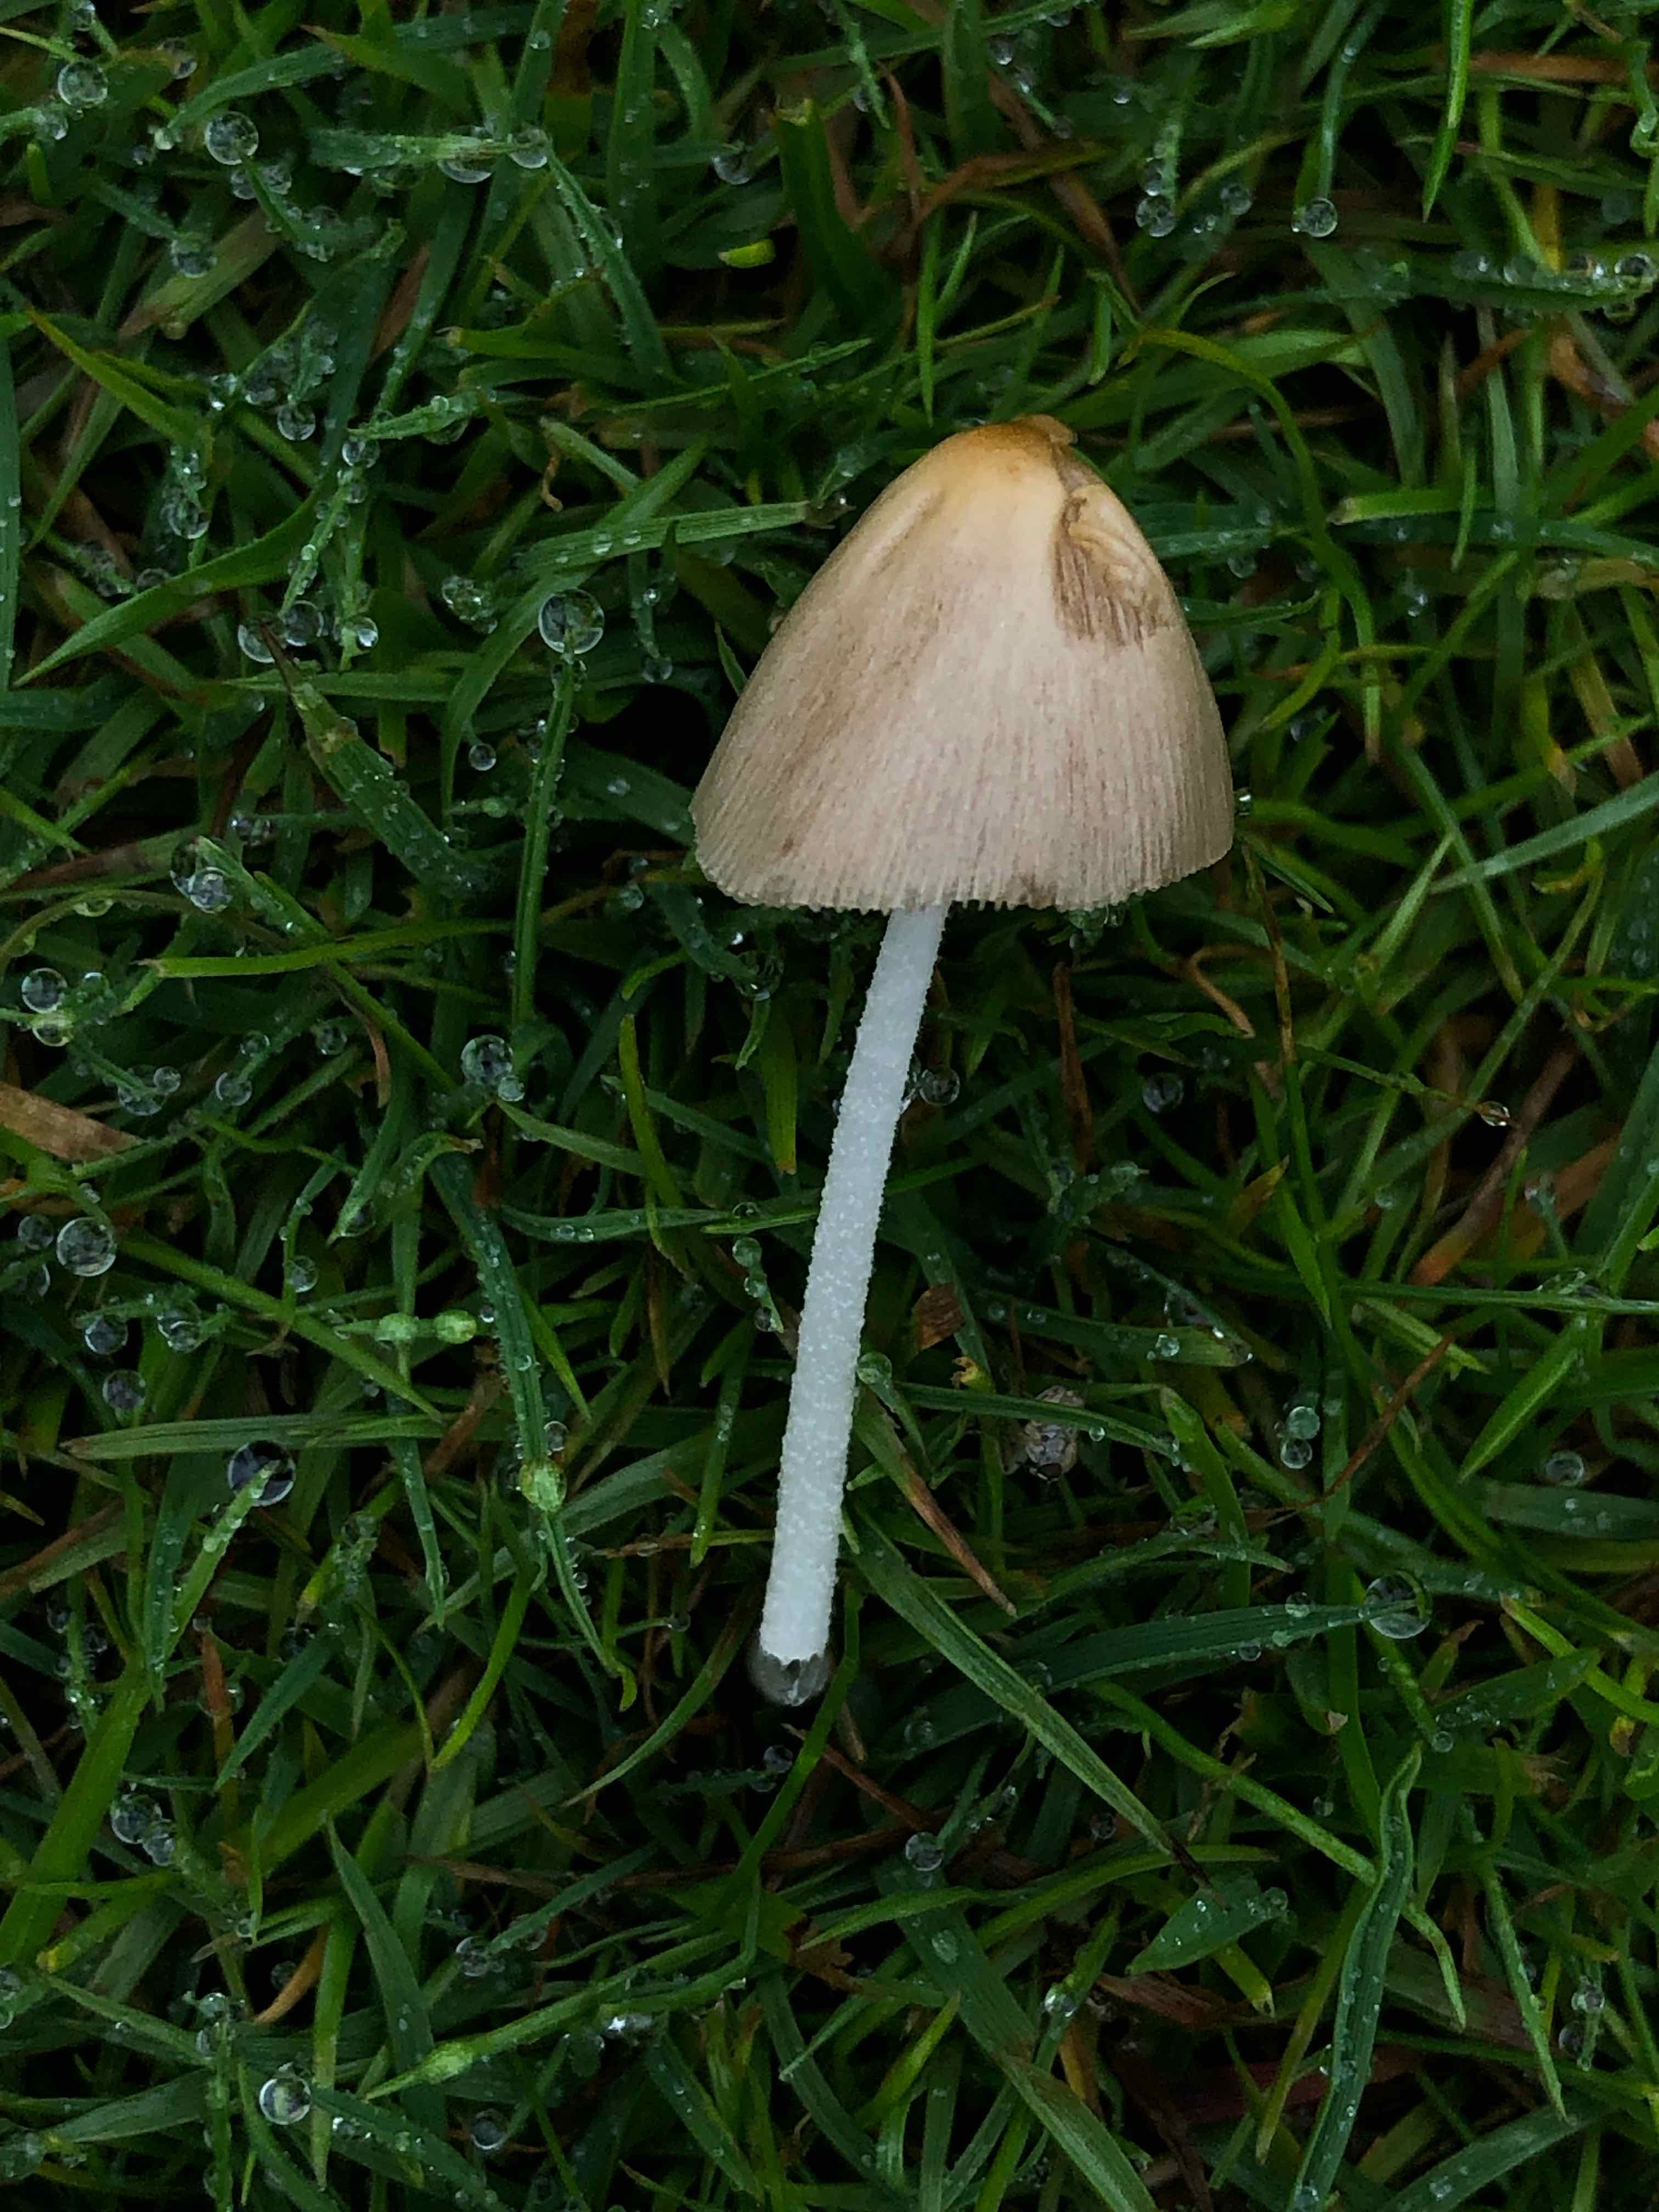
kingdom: Fungi
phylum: Basidiomycota
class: Agaricomycetes
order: Agaricales
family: Bolbitiaceae
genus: Bolbitius
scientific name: Bolbitius titubans
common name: almindelig gulhat
